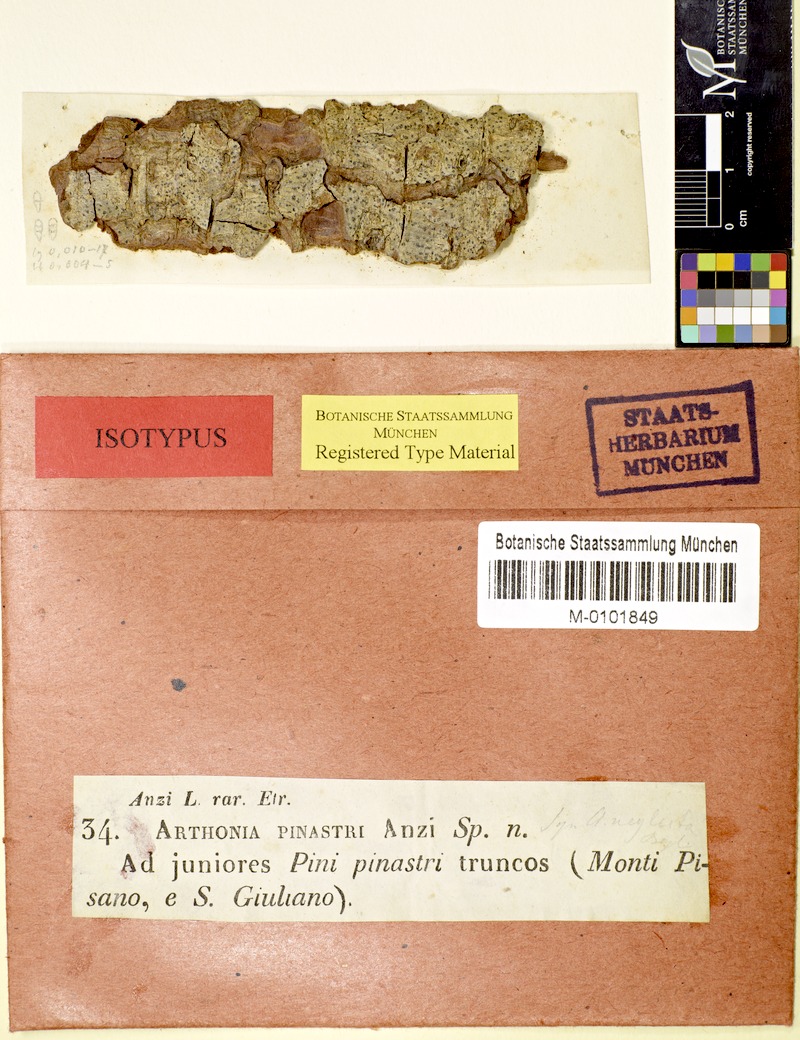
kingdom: Fungi
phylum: Ascomycota
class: Arthoniomycetes
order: Arthoniales
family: Arthoniaceae
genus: Naevia
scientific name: Naevia pinastri
